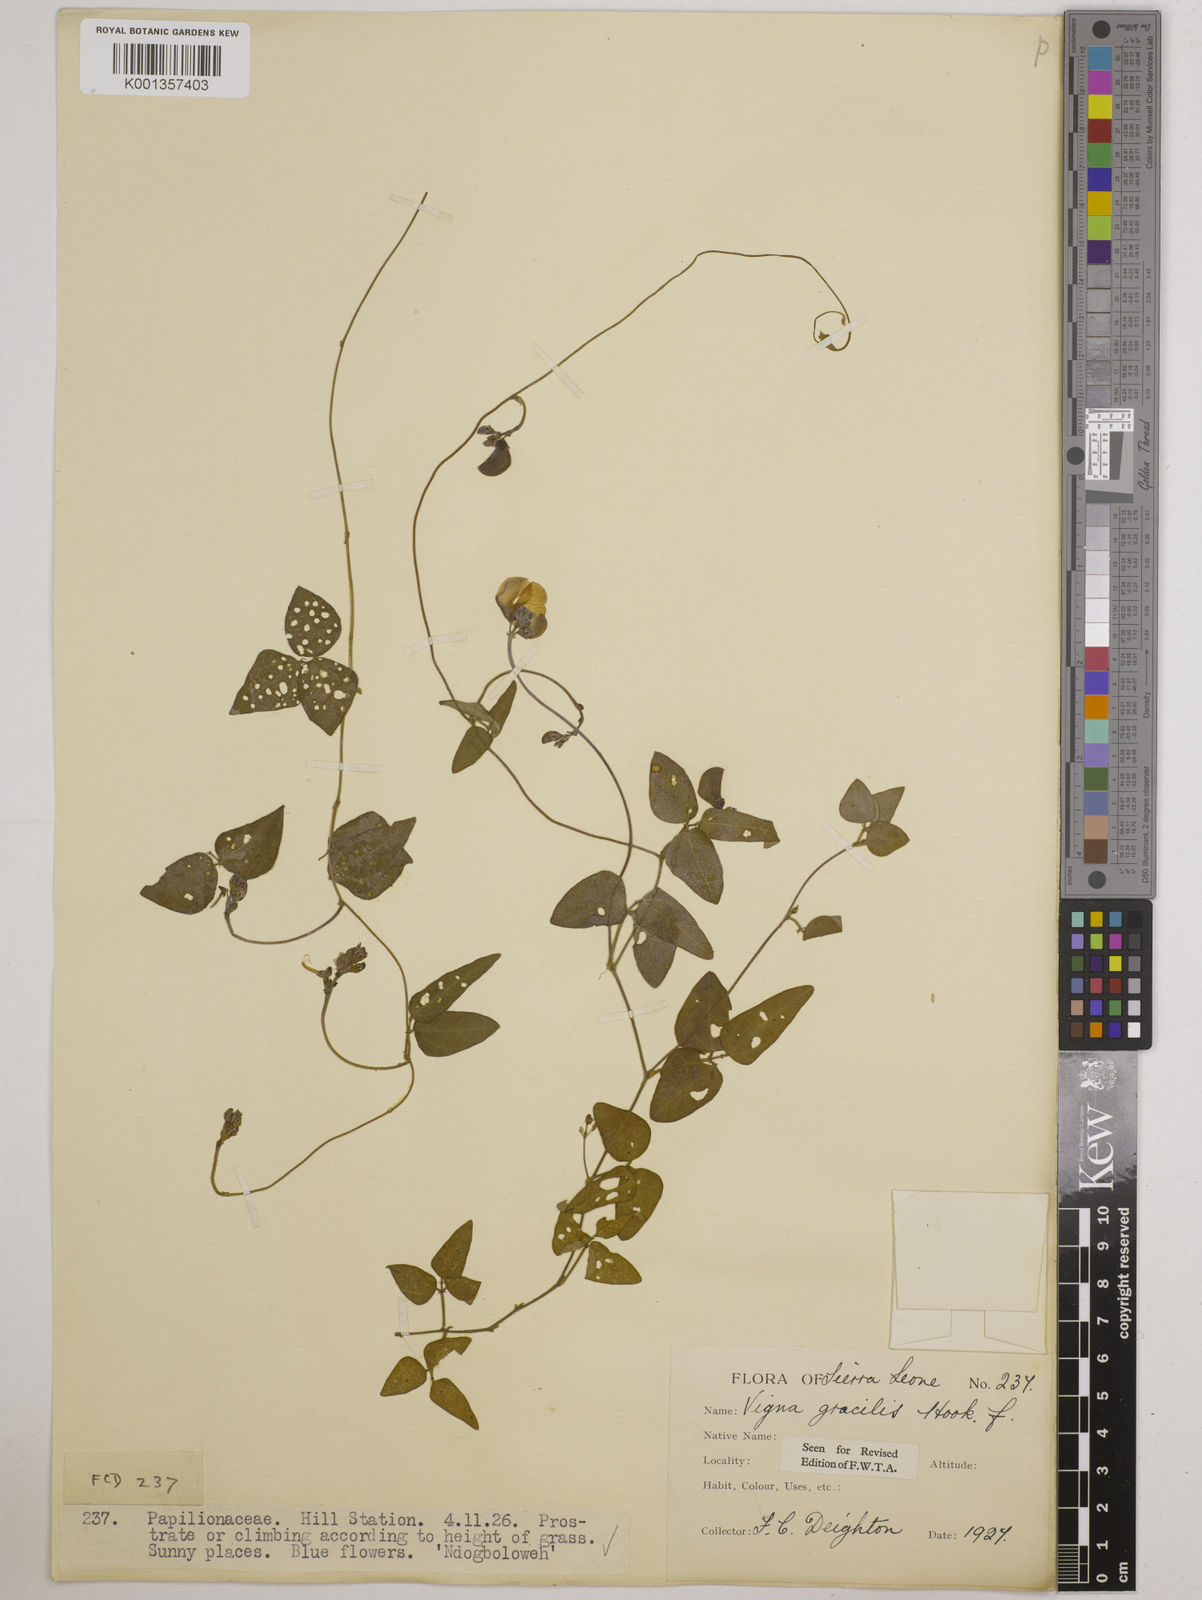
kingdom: Plantae
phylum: Tracheophyta
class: Magnoliopsida
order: Fabales
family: Fabaceae
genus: Vigna
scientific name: Vigna gracilis
